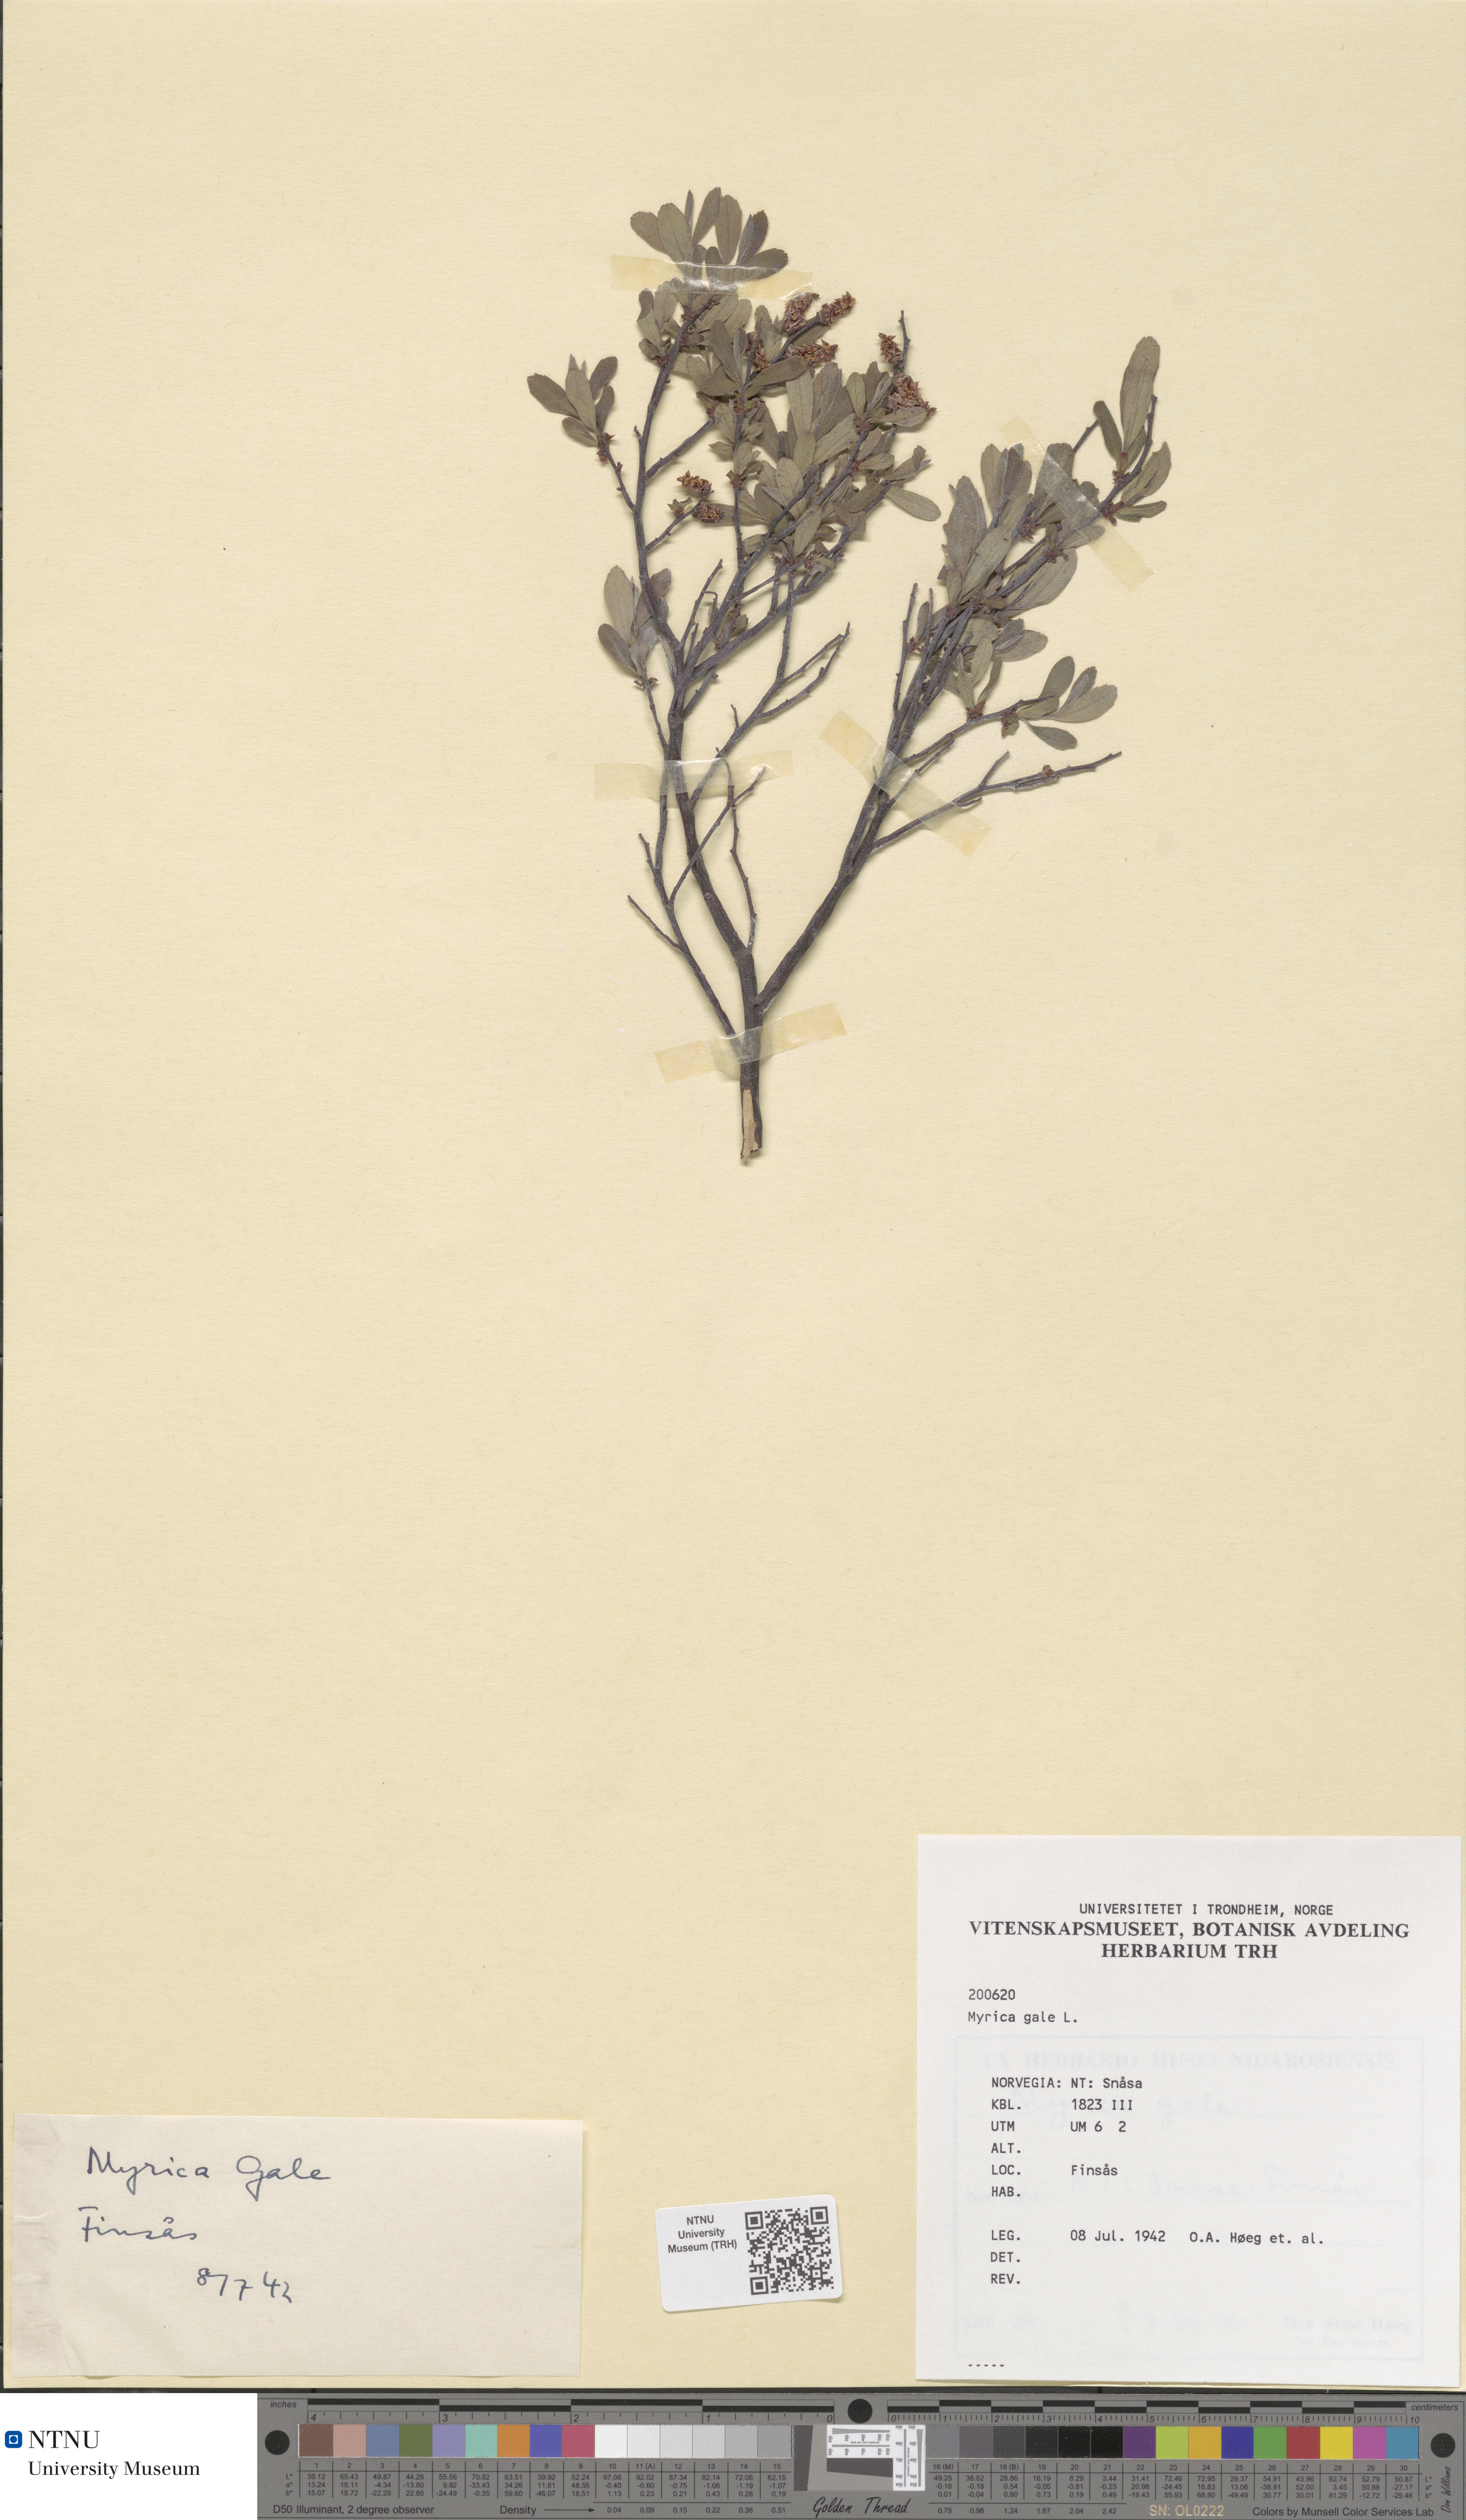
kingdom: Plantae
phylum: Tracheophyta
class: Magnoliopsida
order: Fagales
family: Myricaceae
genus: Myrica
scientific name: Myrica gale
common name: Sweet gale
